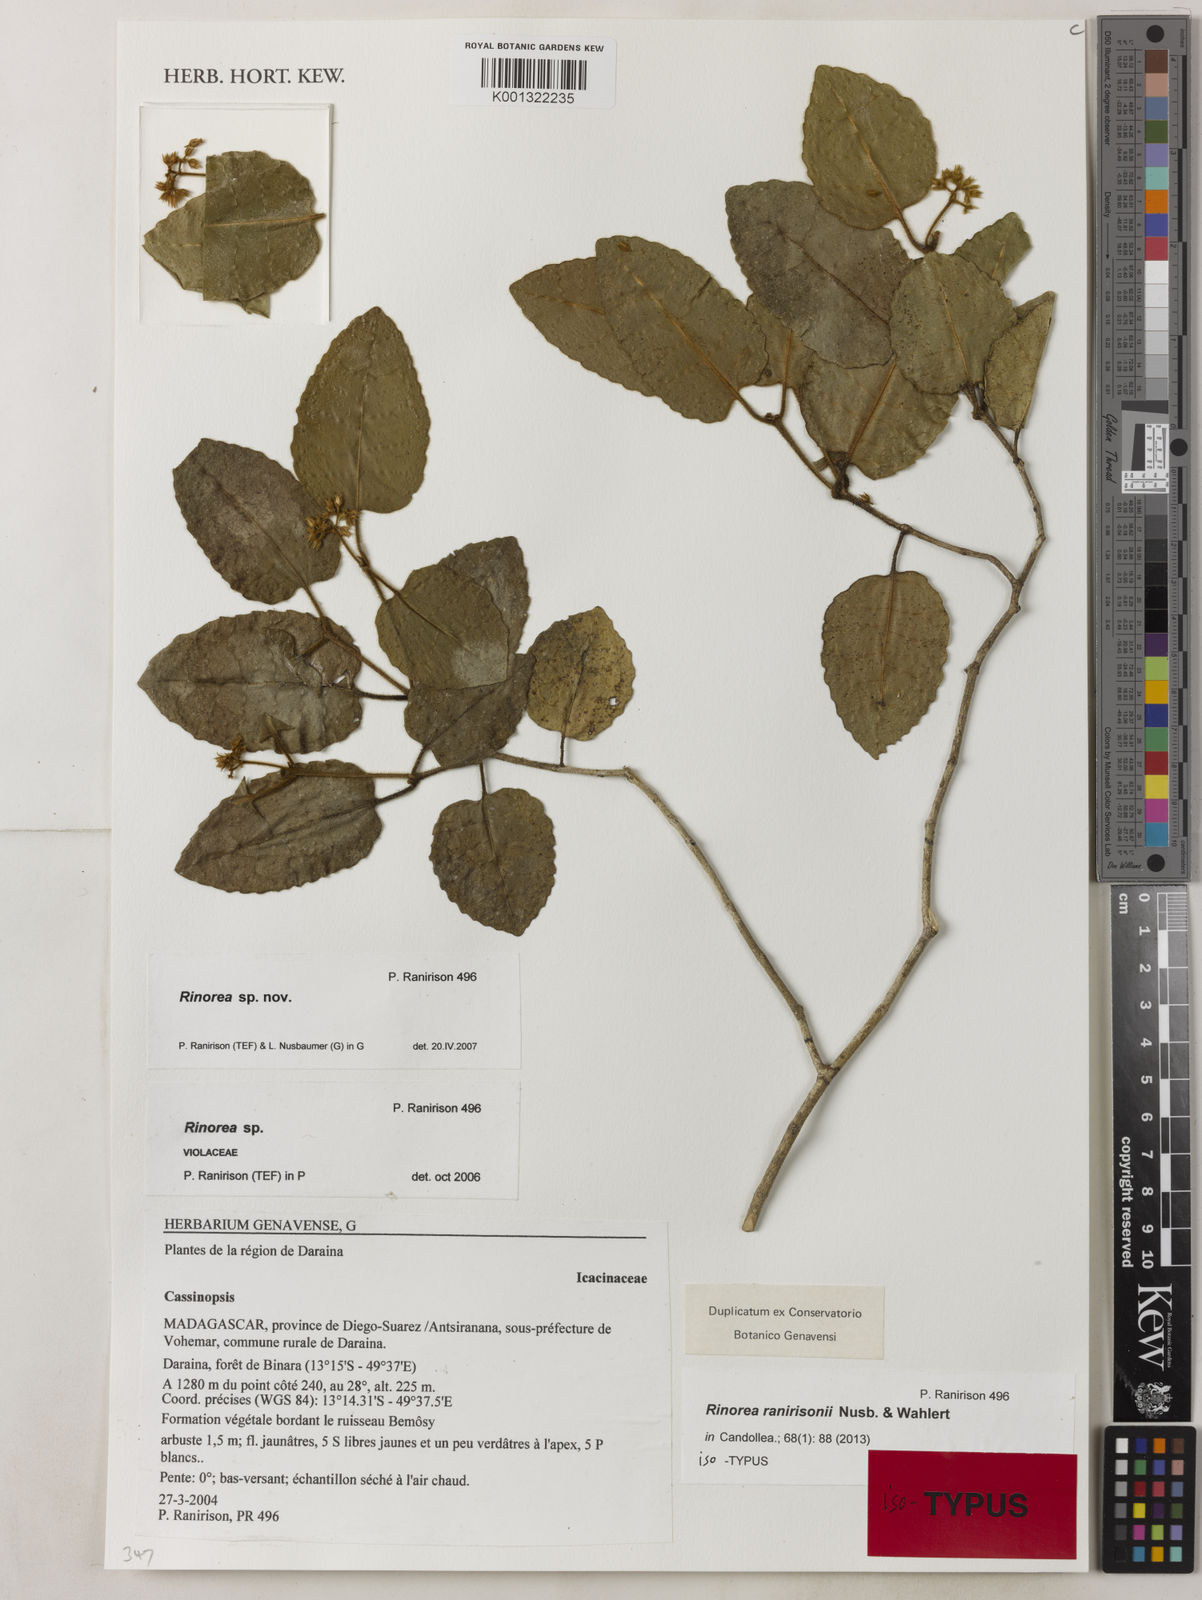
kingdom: Plantae
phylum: Tracheophyta
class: Magnoliopsida
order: Malpighiales
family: Violaceae
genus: Rinorea
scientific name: Rinorea ranirisonii
